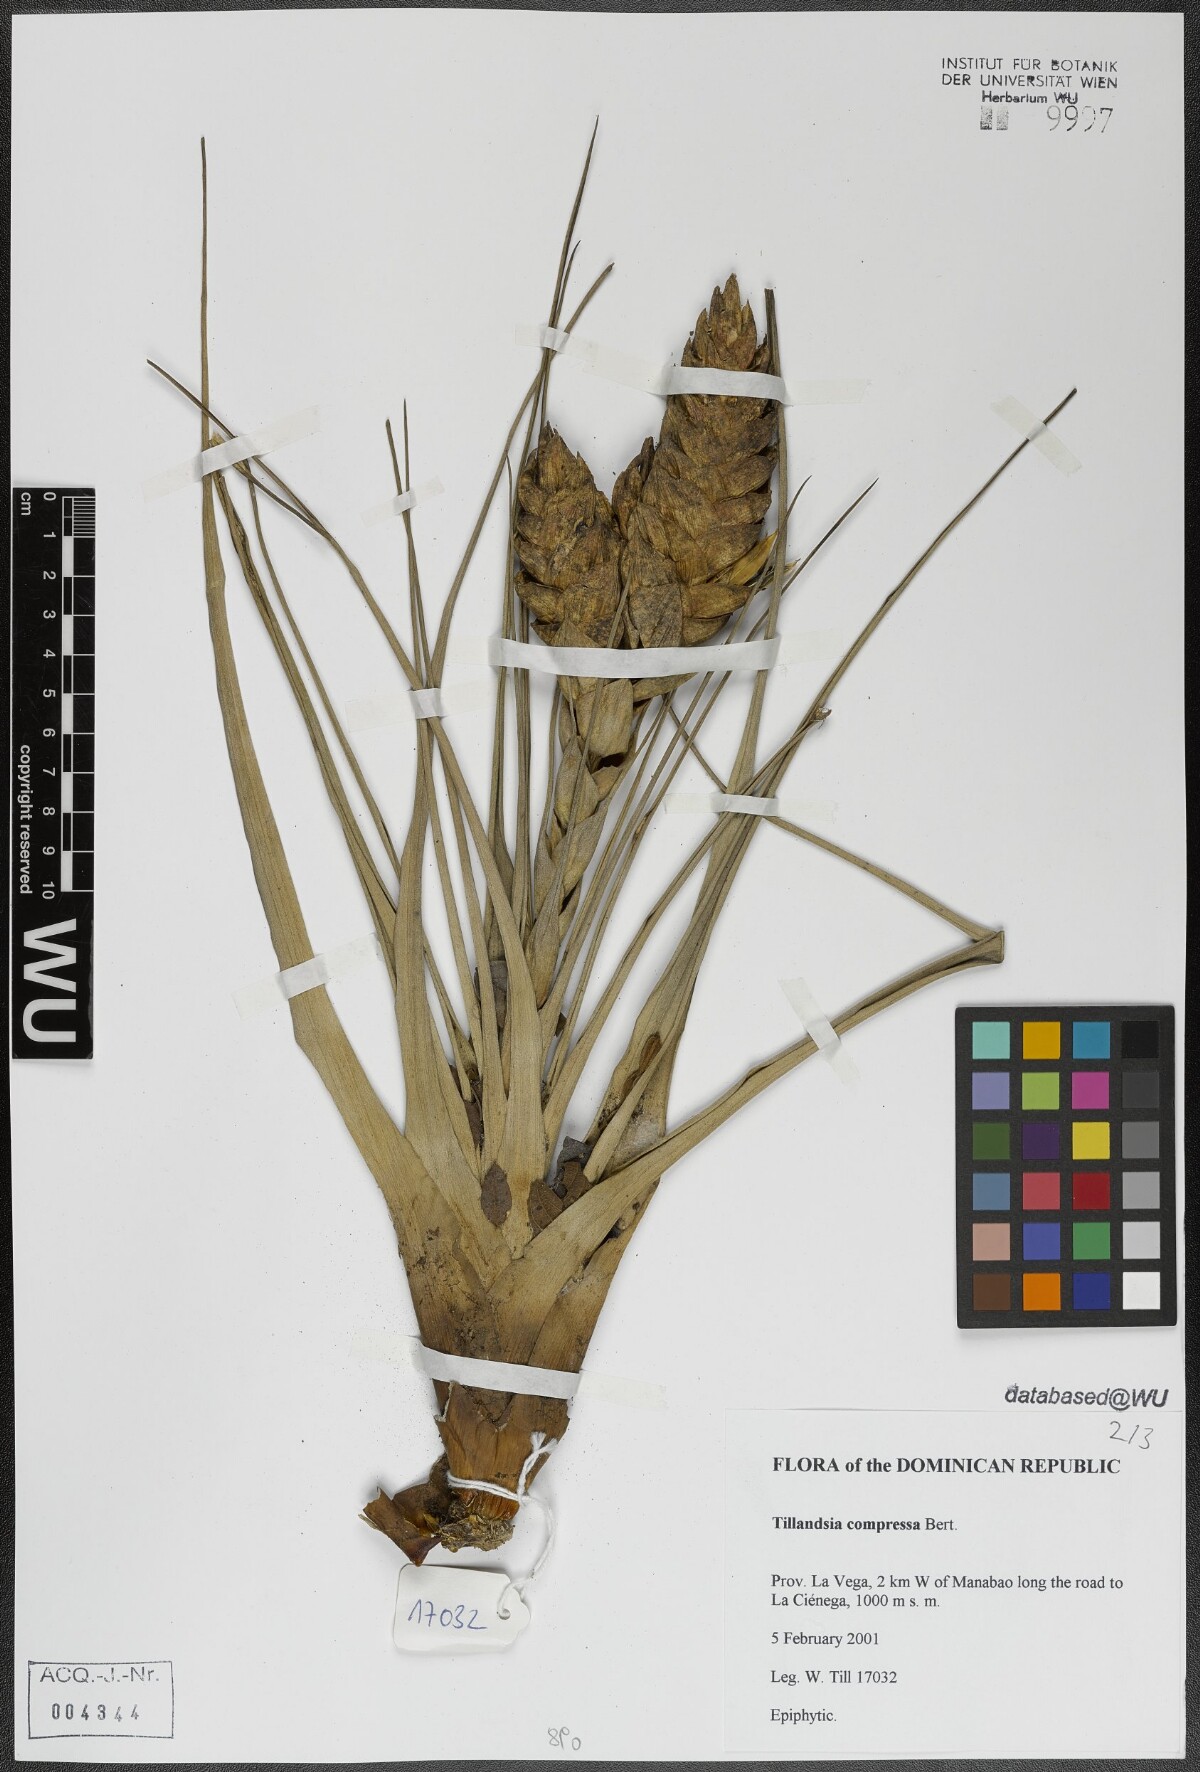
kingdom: Plantae
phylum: Tracheophyta
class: Liliopsida
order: Poales
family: Bromeliaceae
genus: Tillandsia
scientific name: Tillandsia compressa
